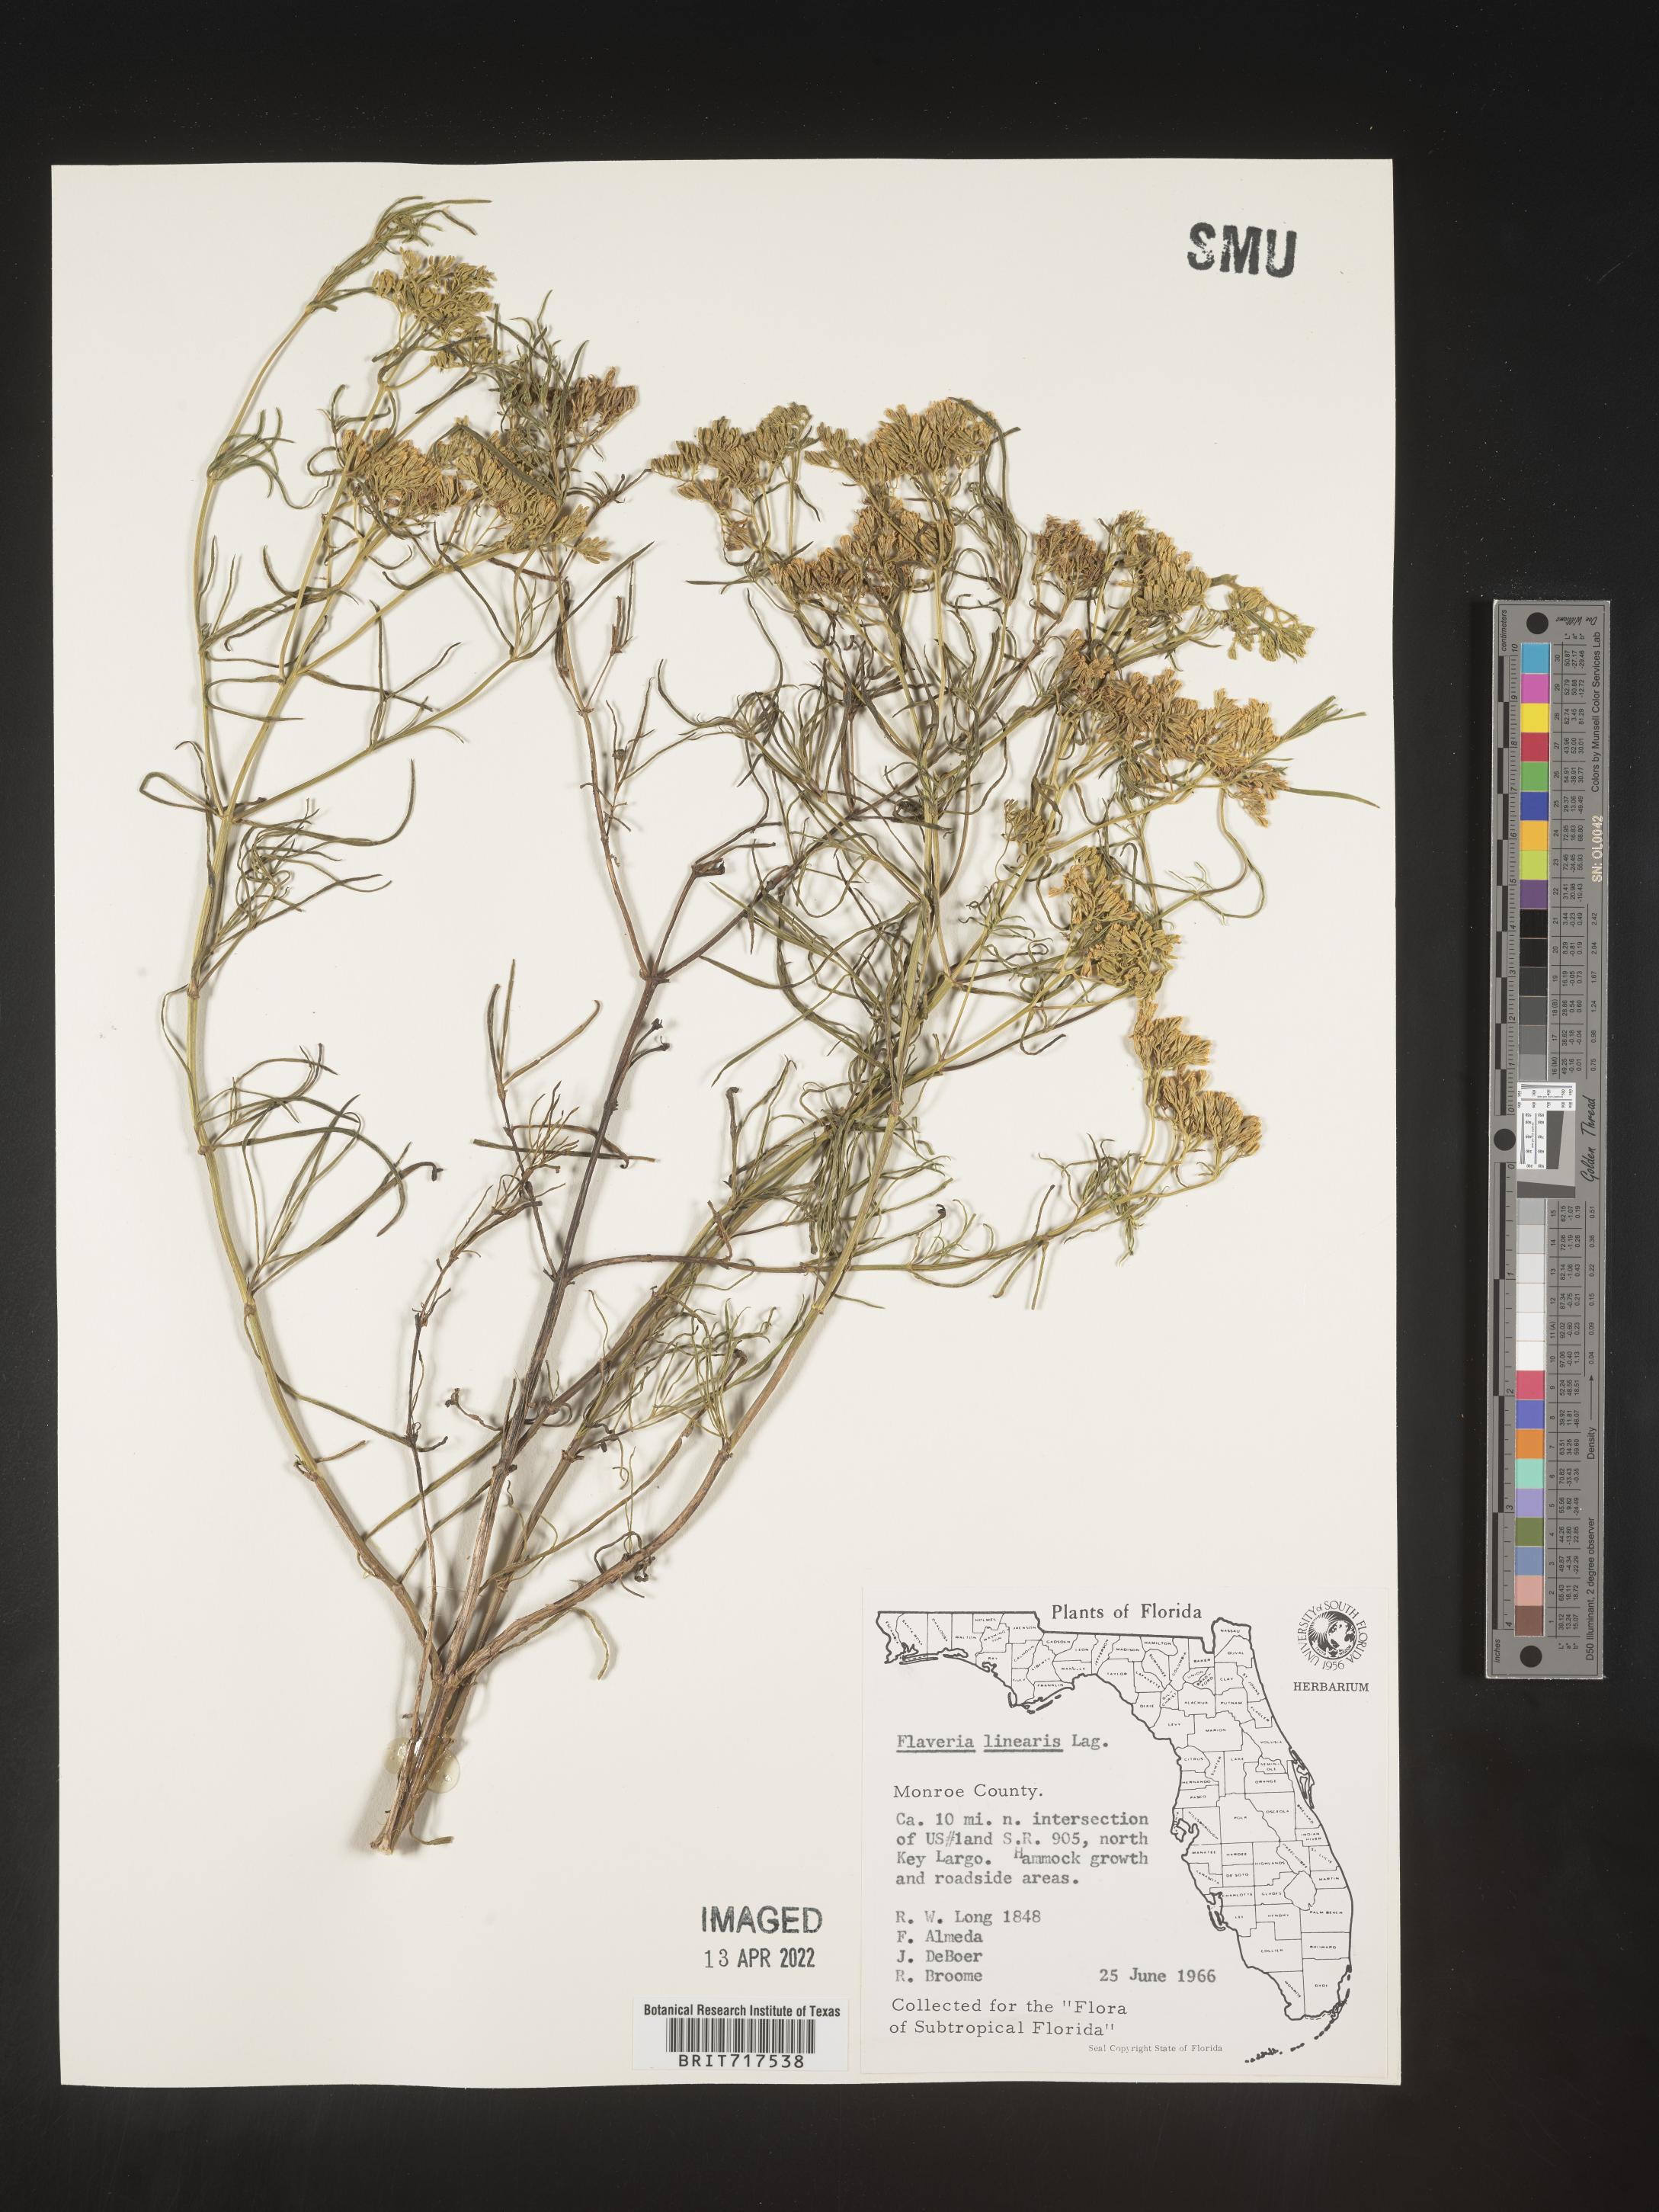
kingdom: Plantae
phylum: Tracheophyta
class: Magnoliopsida
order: Asterales
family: Asteraceae
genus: Flaveria
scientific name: Flaveria linearis
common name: Yellowtop
